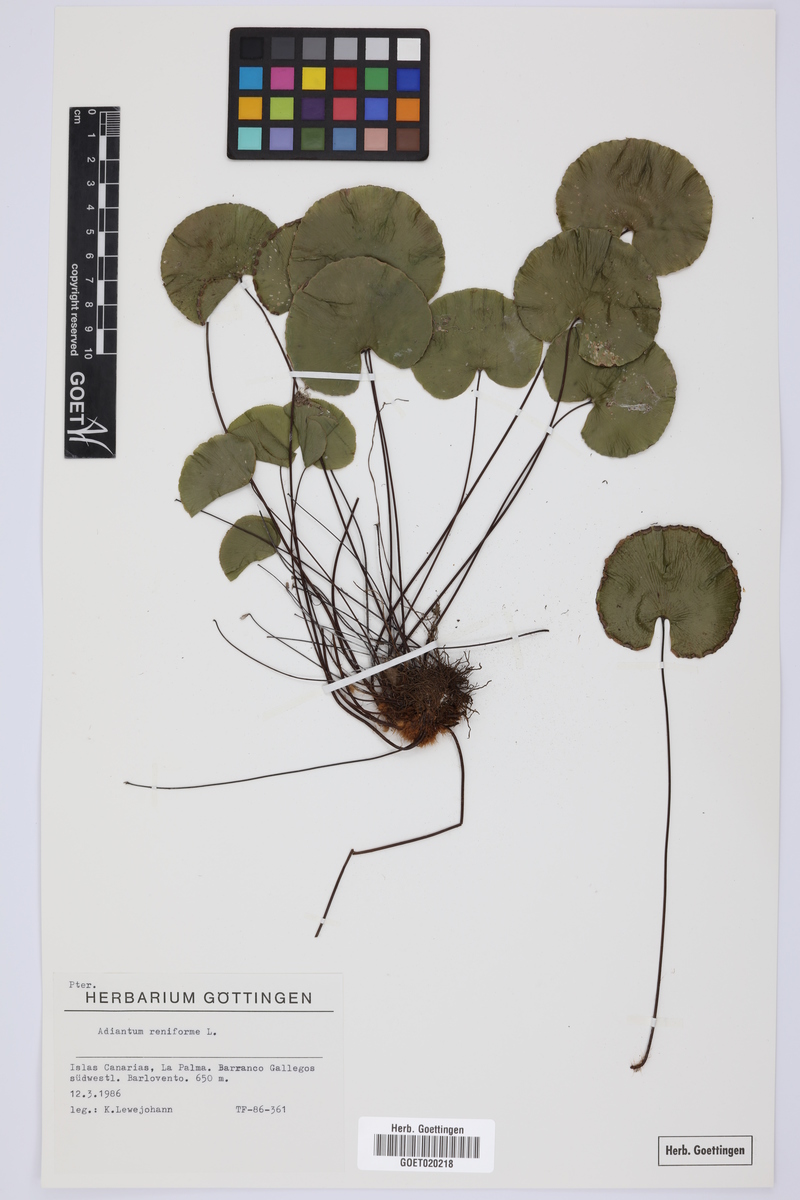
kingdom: Plantae
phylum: Tracheophyta
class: Polypodiopsida
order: Polypodiales
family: Pteridaceae
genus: Adiantum
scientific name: Adiantum reniforme
